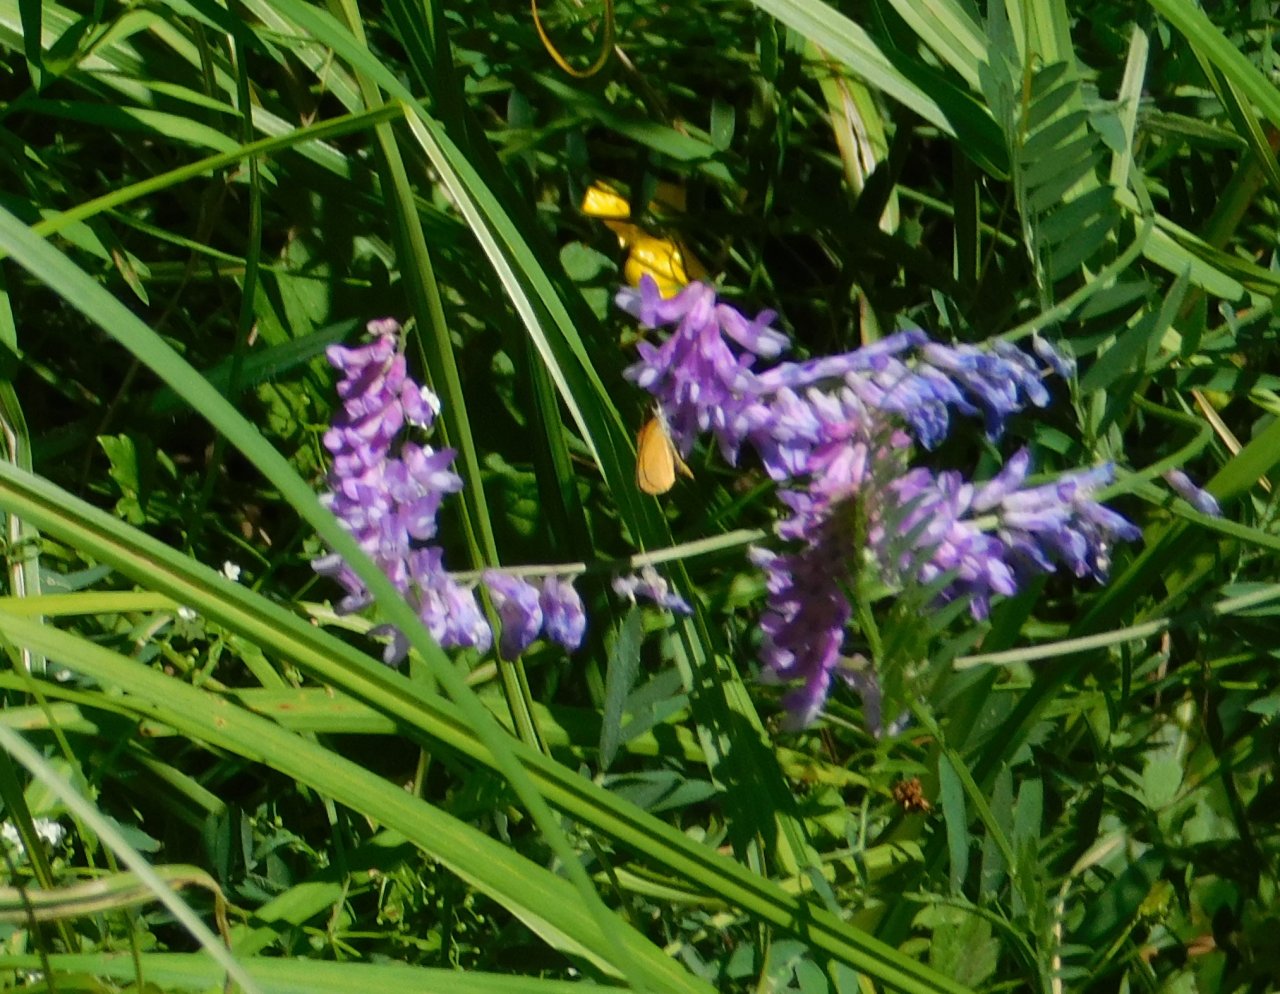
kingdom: Animalia
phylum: Arthropoda
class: Insecta
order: Lepidoptera
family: Hesperiidae
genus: Ancyloxypha
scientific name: Ancyloxypha numitor
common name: Least Skipper
